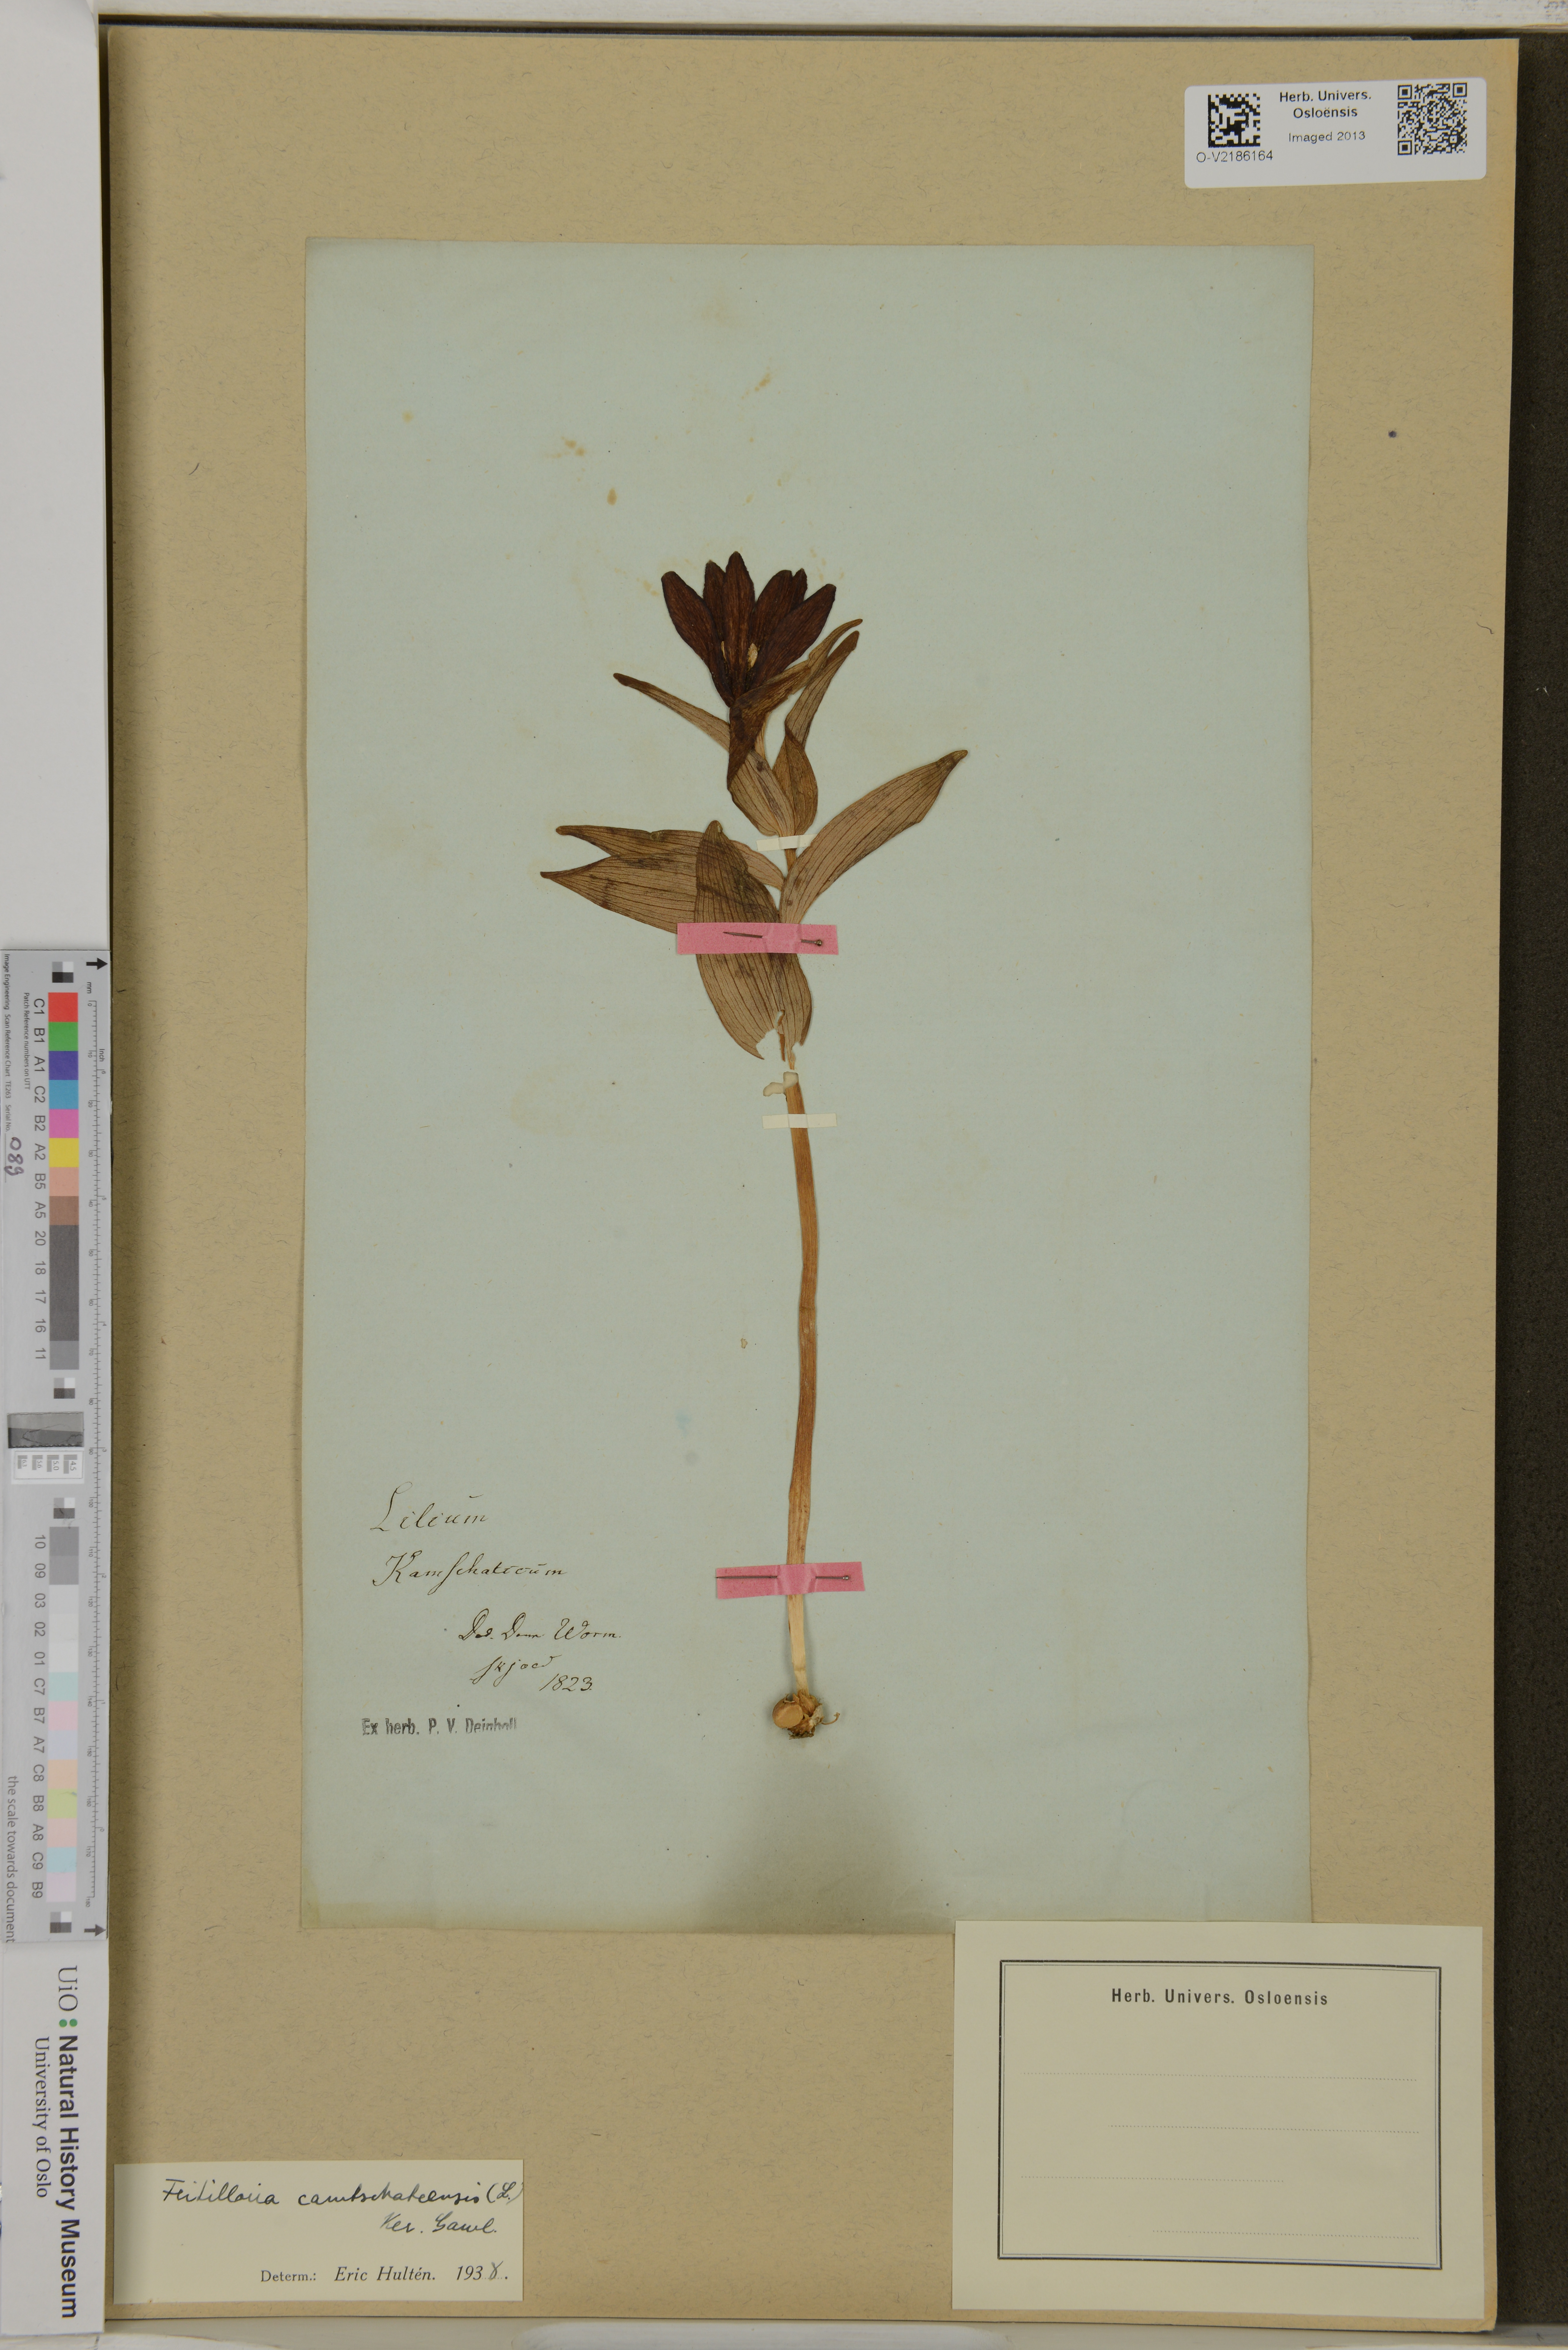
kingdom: Plantae
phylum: Tracheophyta
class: Liliopsida
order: Liliales
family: Liliaceae
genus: Fritillaria
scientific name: Fritillaria camschatcensis
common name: Kamchatka fritillary
